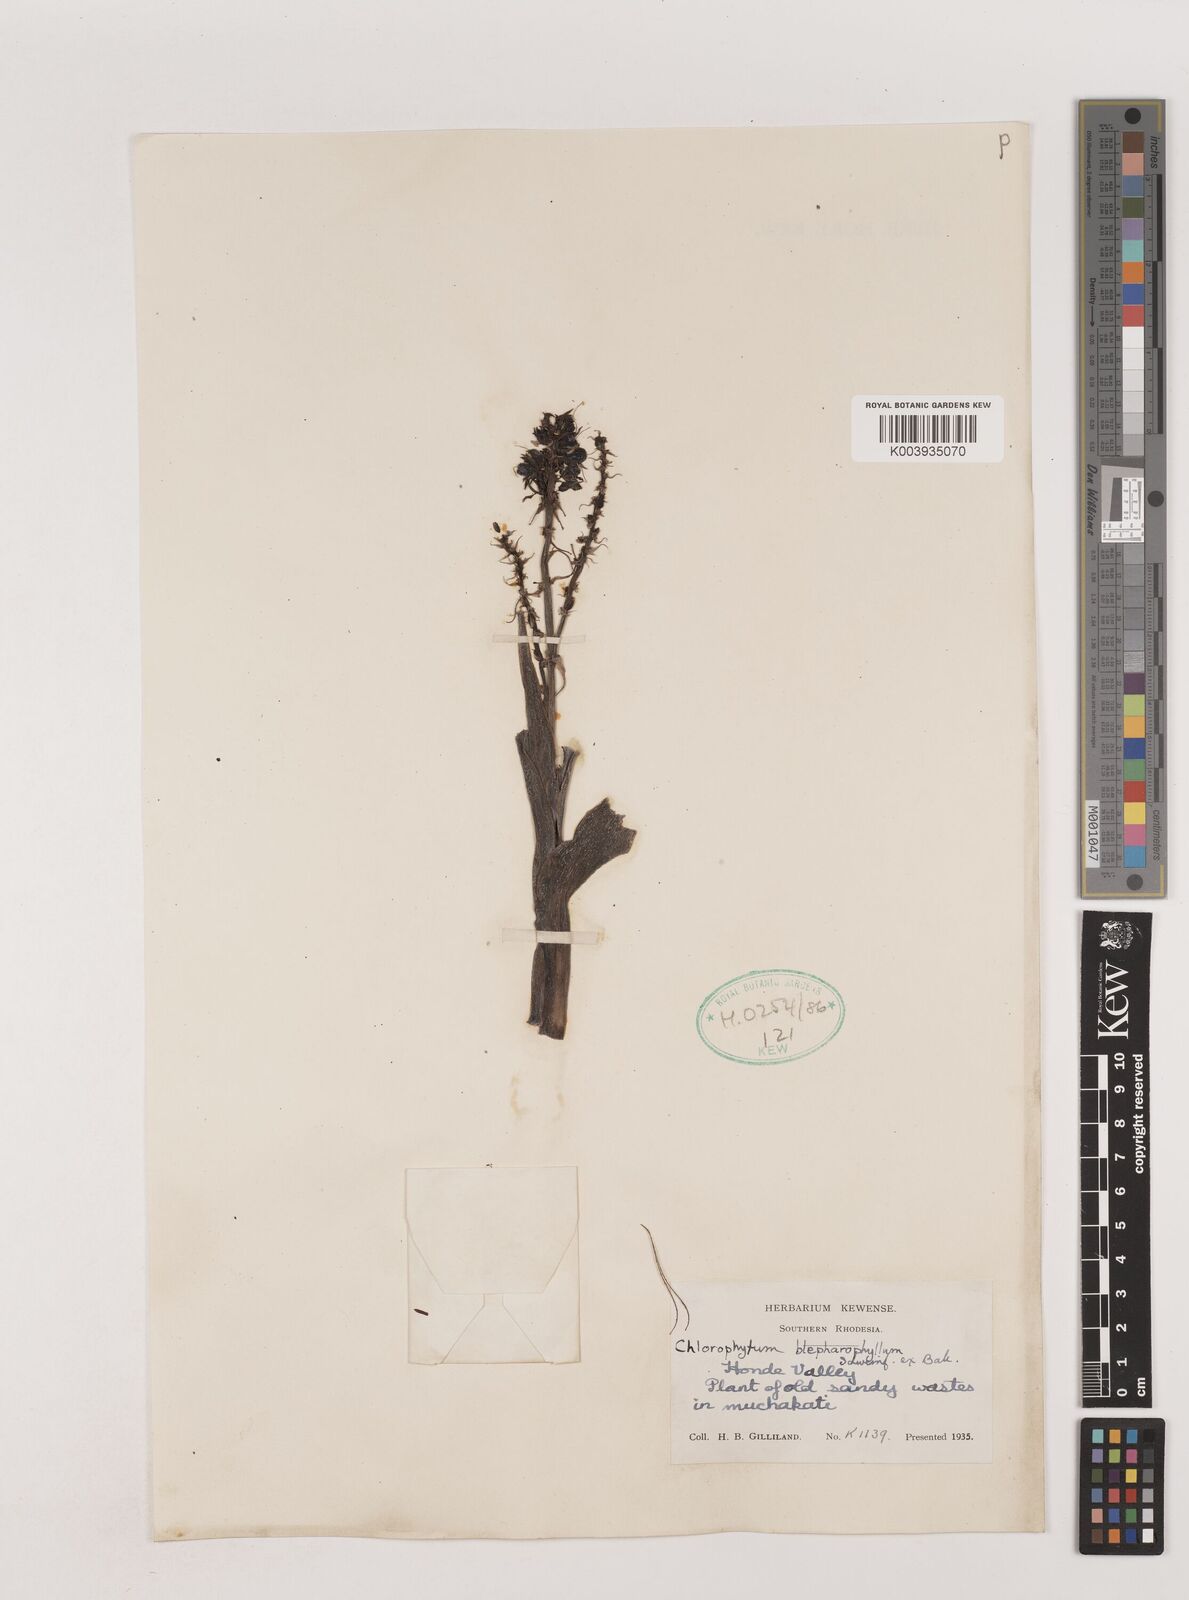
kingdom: Plantae
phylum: Tracheophyta
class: Liliopsida
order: Asparagales
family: Asparagaceae
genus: Chlorophytum
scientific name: Chlorophytum blepharophyllum
